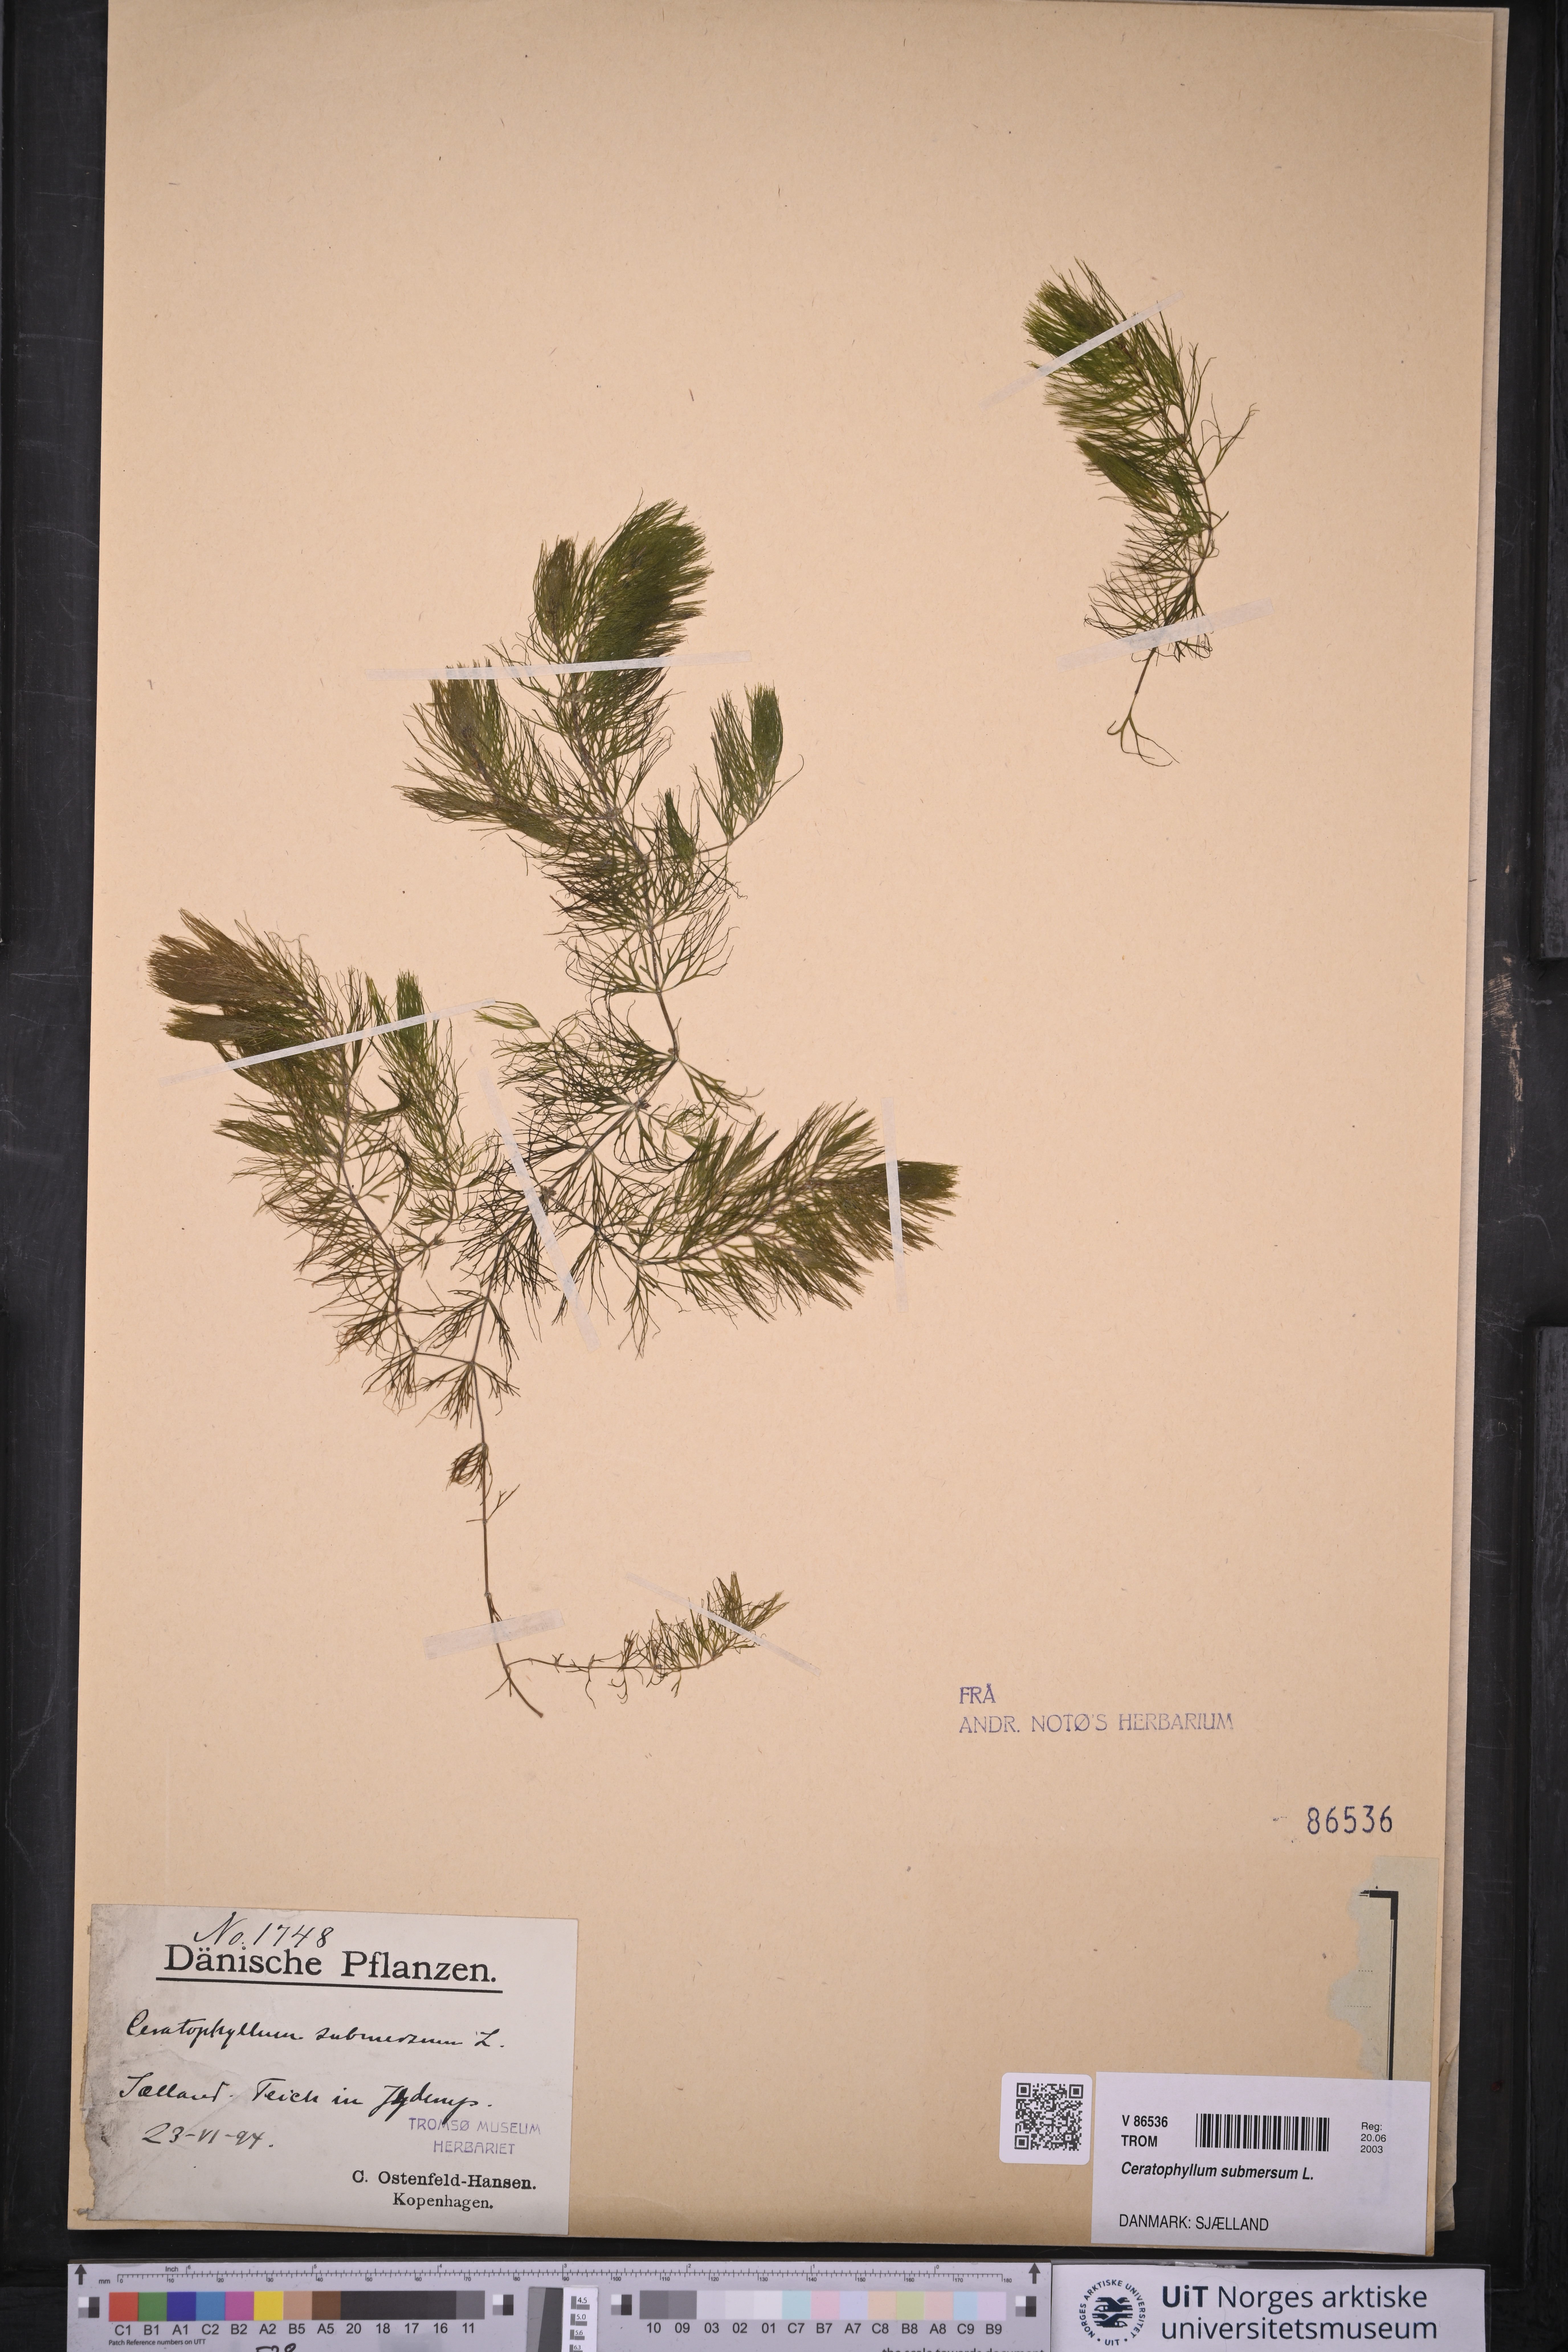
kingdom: Plantae
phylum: Tracheophyta
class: Magnoliopsida
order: Ceratophyllales
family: Ceratophyllaceae
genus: Ceratophyllum
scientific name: Ceratophyllum submersum
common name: Soft hornwort
